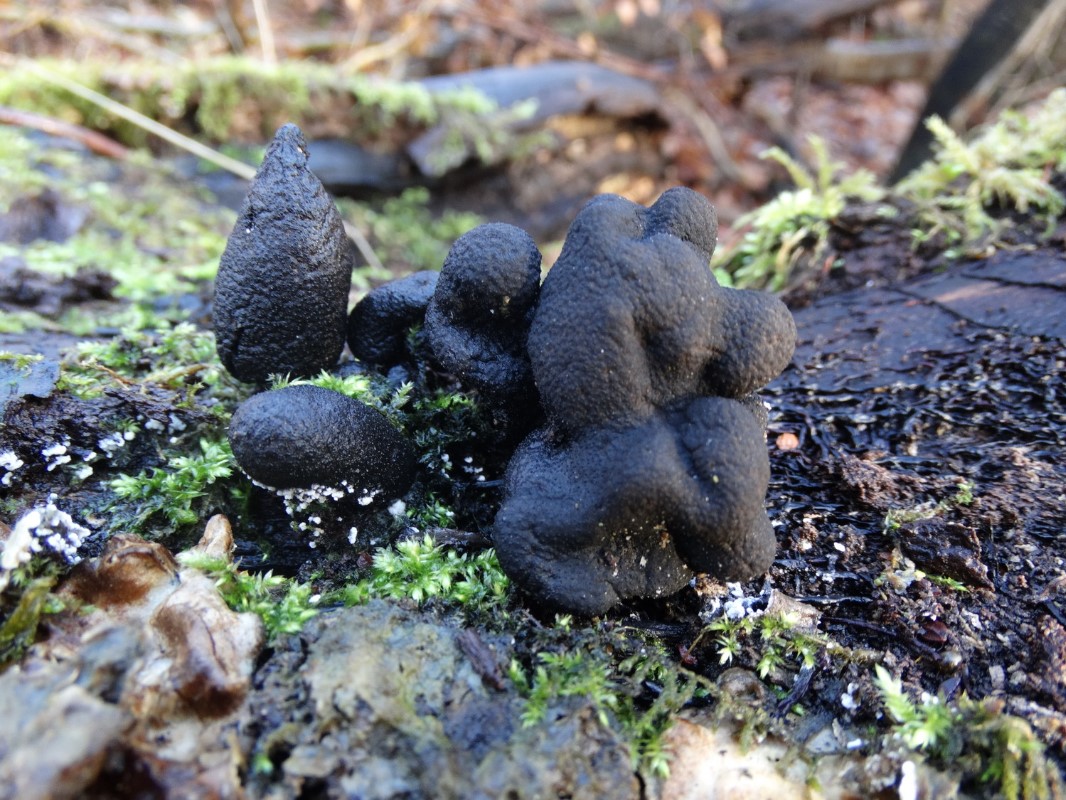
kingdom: Fungi
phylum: Ascomycota
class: Sordariomycetes
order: Xylariales
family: Xylariaceae
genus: Xylaria
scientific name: Xylaria polymorpha
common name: kølle-stødsvamp
